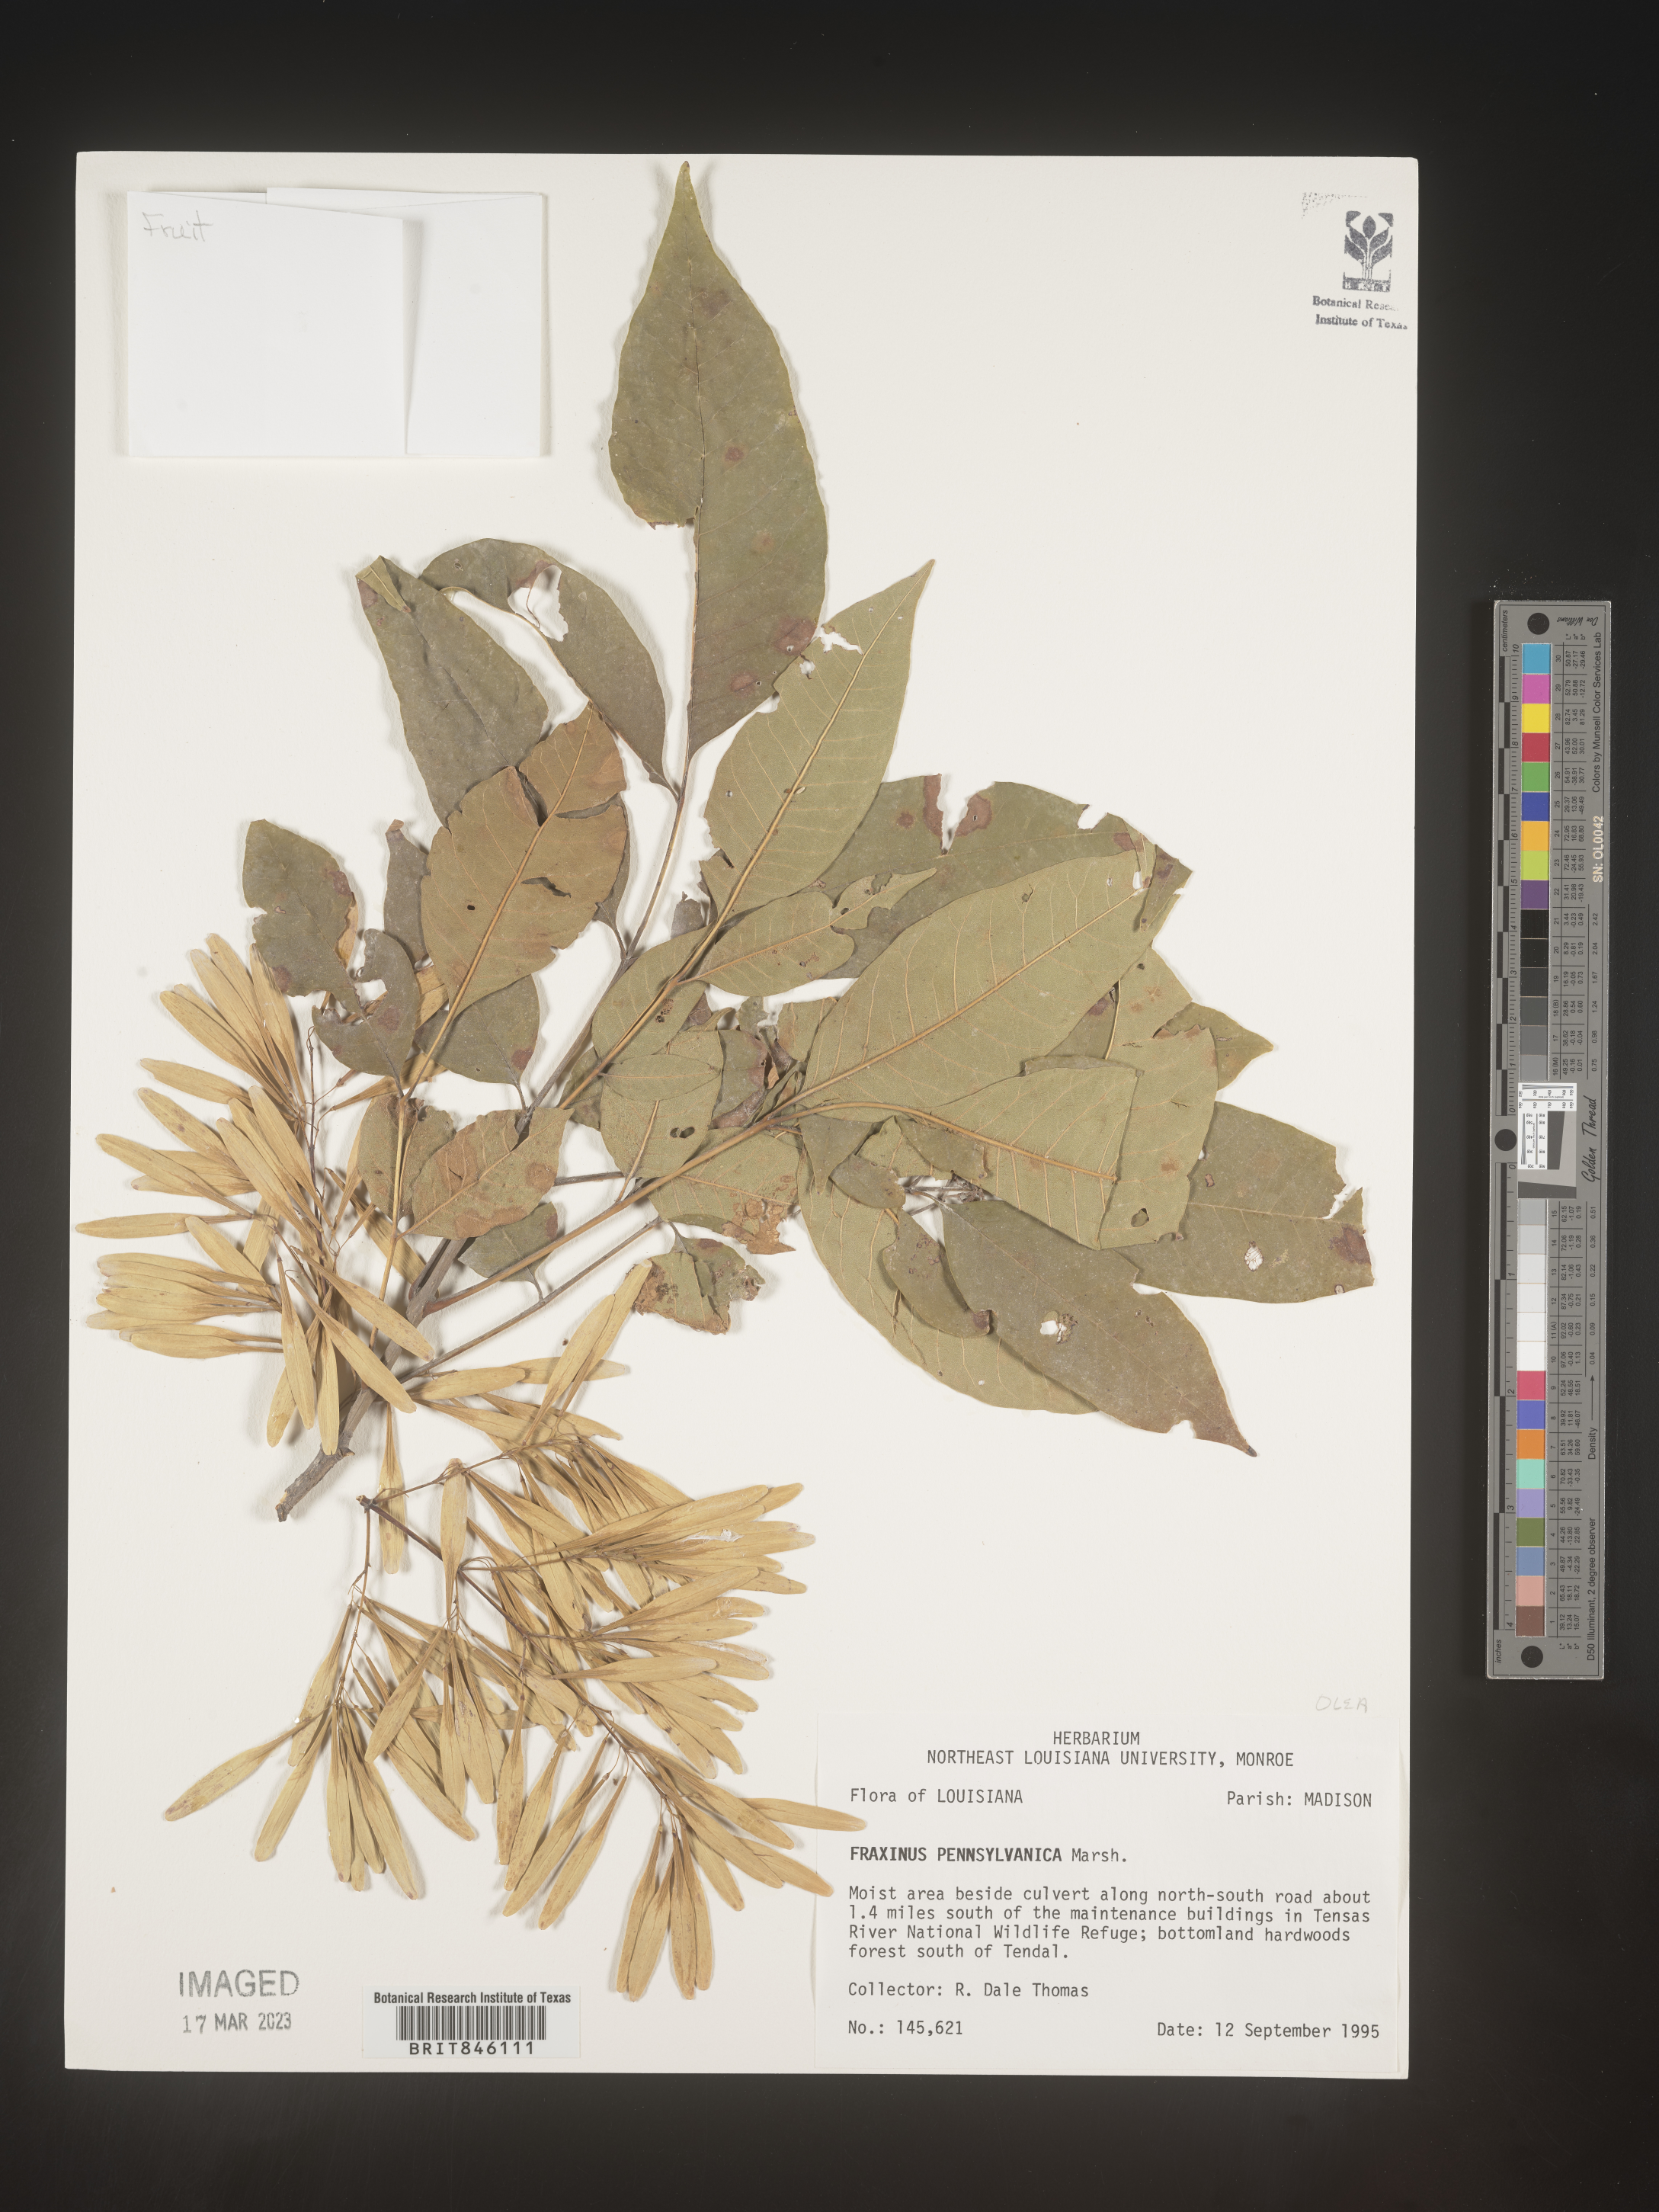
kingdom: Plantae
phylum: Tracheophyta
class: Magnoliopsida
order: Lamiales
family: Oleaceae
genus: Fraxinus
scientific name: Fraxinus pennsylvanica
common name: Green ash
